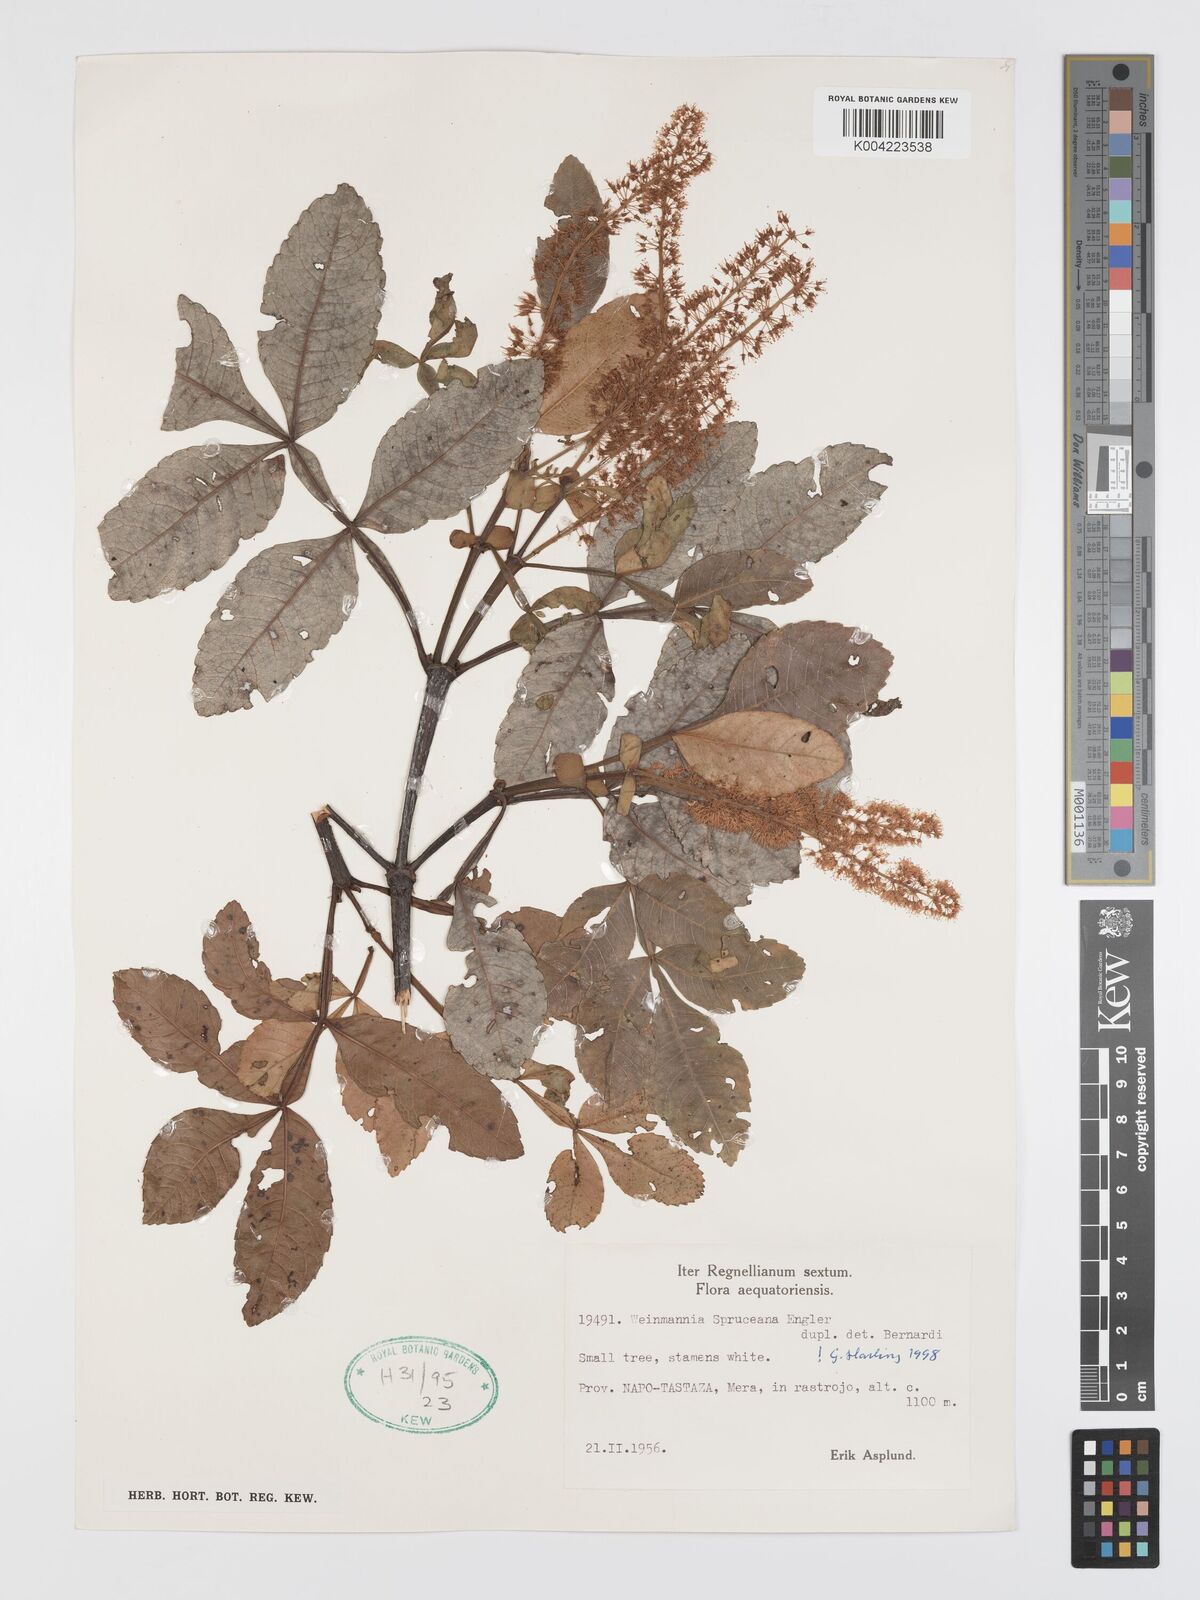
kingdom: Plantae
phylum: Tracheophyta
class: Magnoliopsida
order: Oxalidales
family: Cunoniaceae
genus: Weinmannia
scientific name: Weinmannia spruceana
